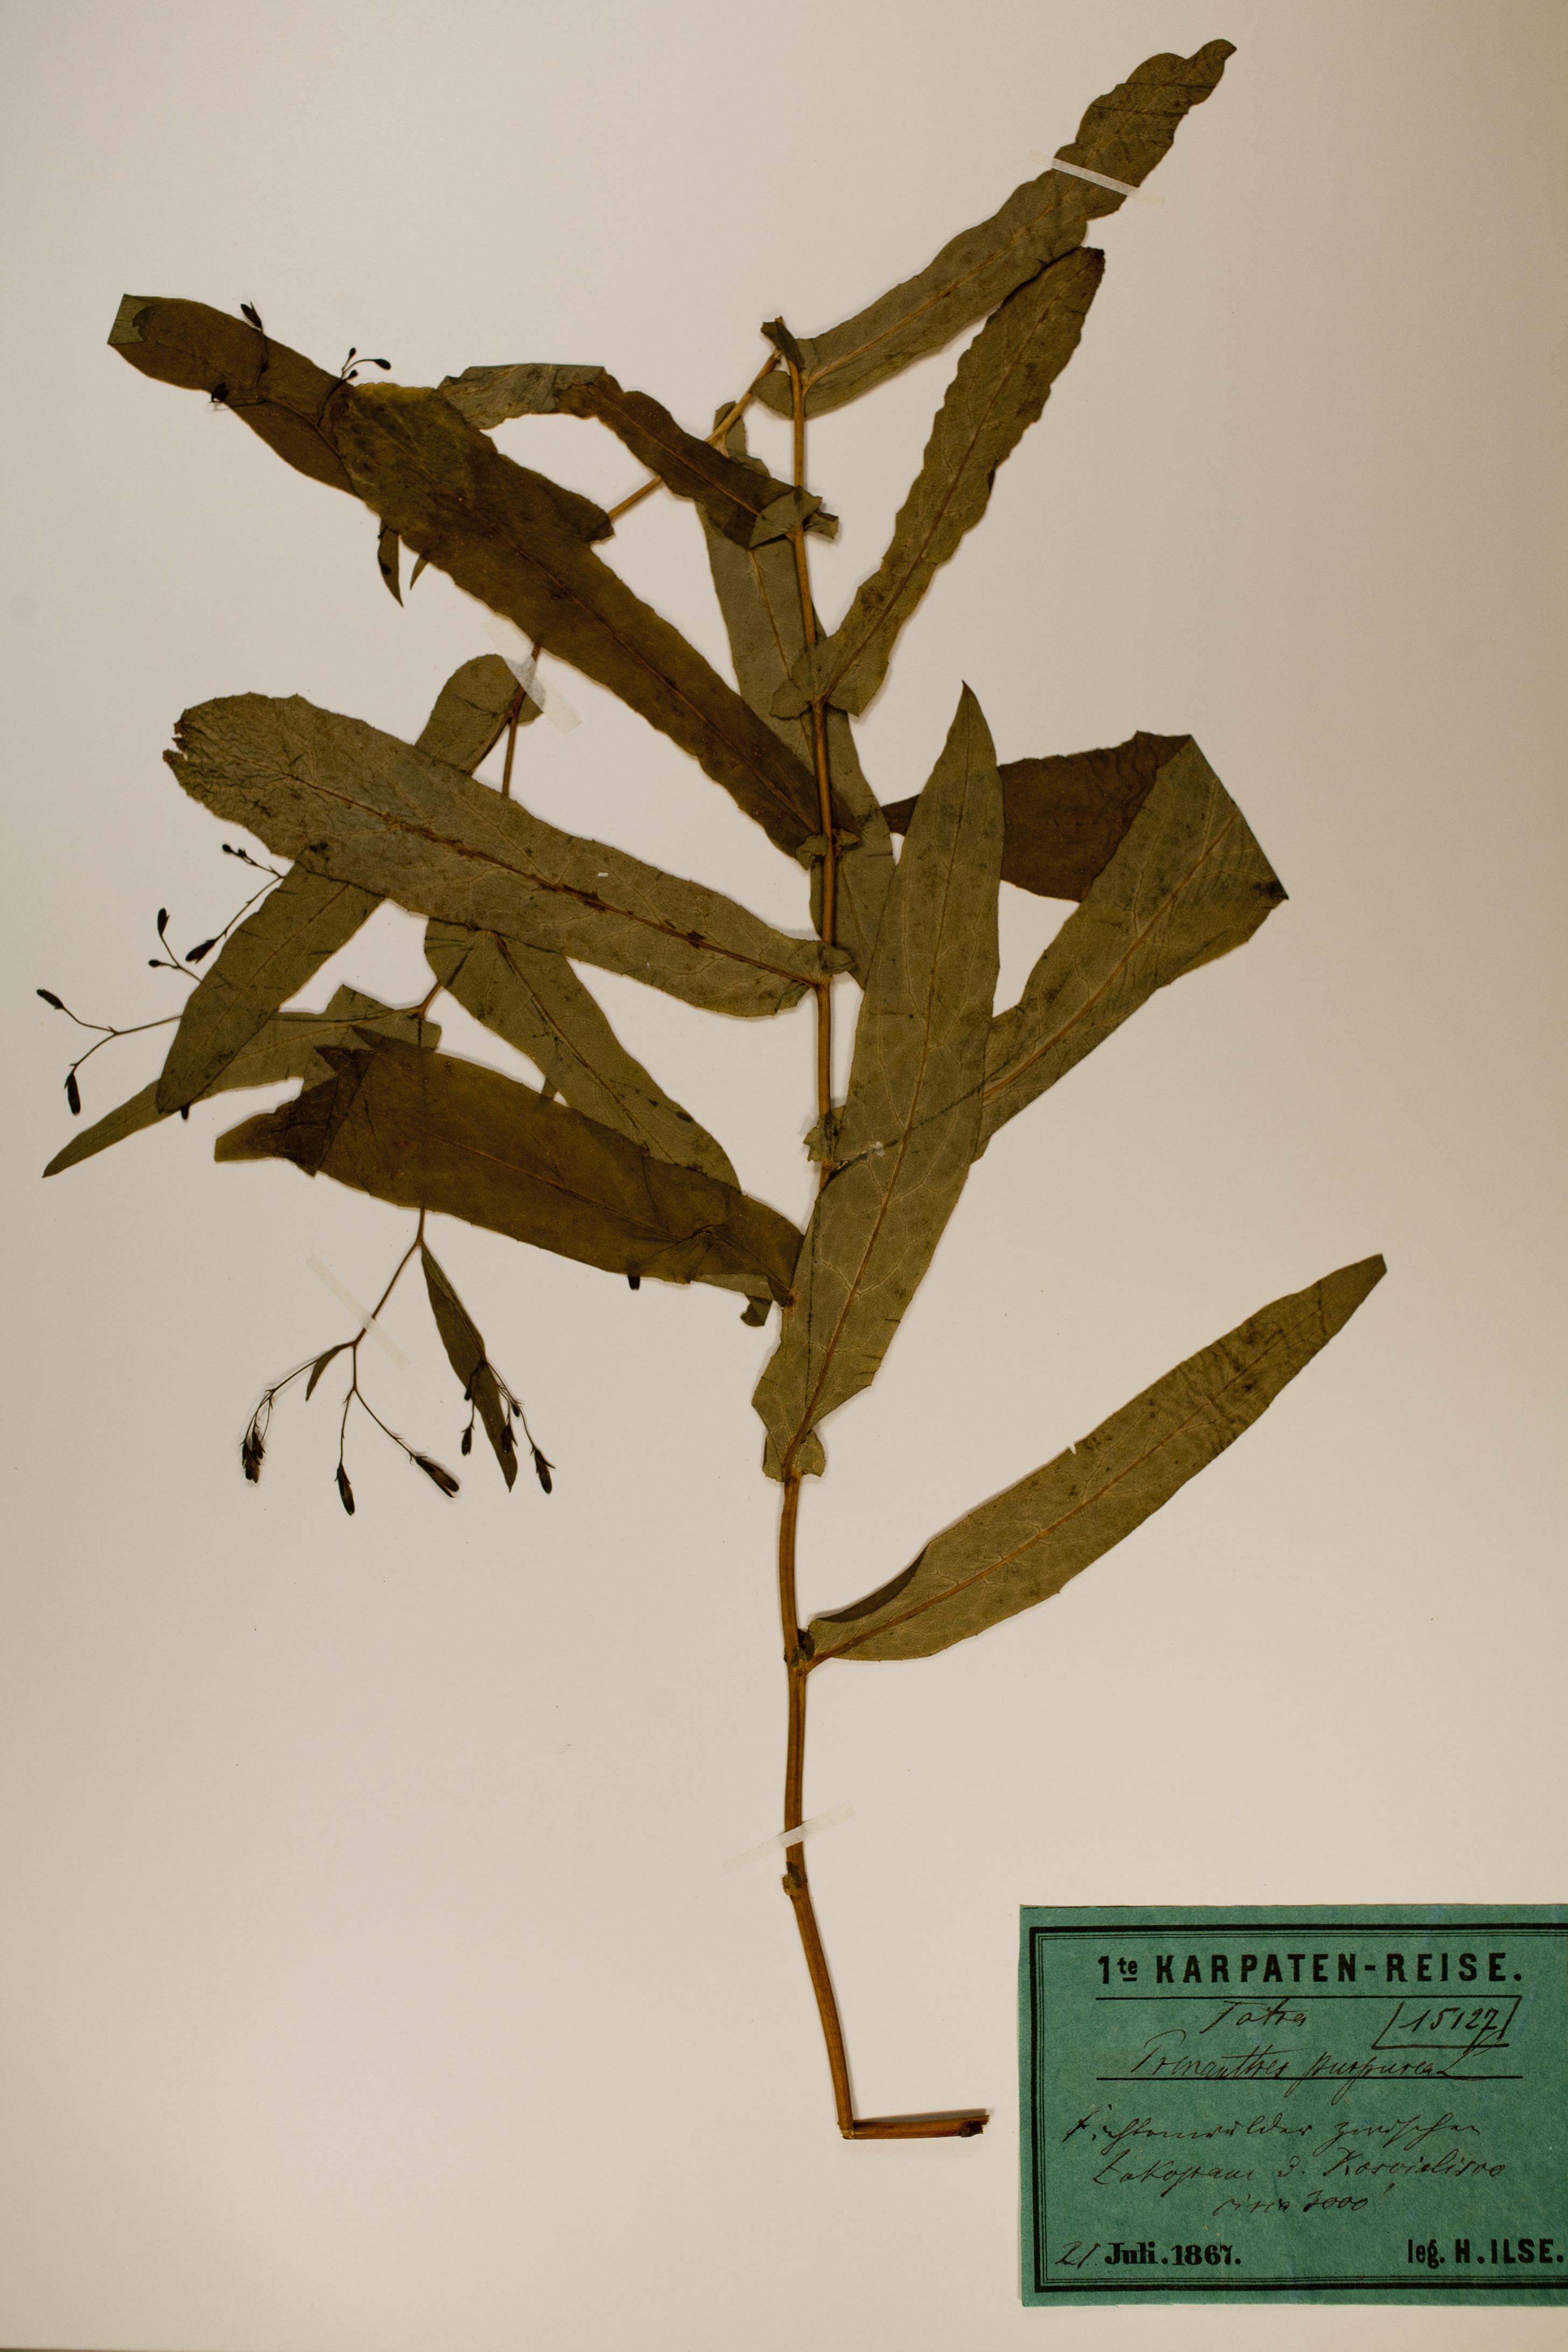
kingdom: Plantae
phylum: Tracheophyta
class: Magnoliopsida
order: Asterales
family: Asteraceae
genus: Prenanthes
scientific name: Prenanthes purpurea
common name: Purple lettuce
